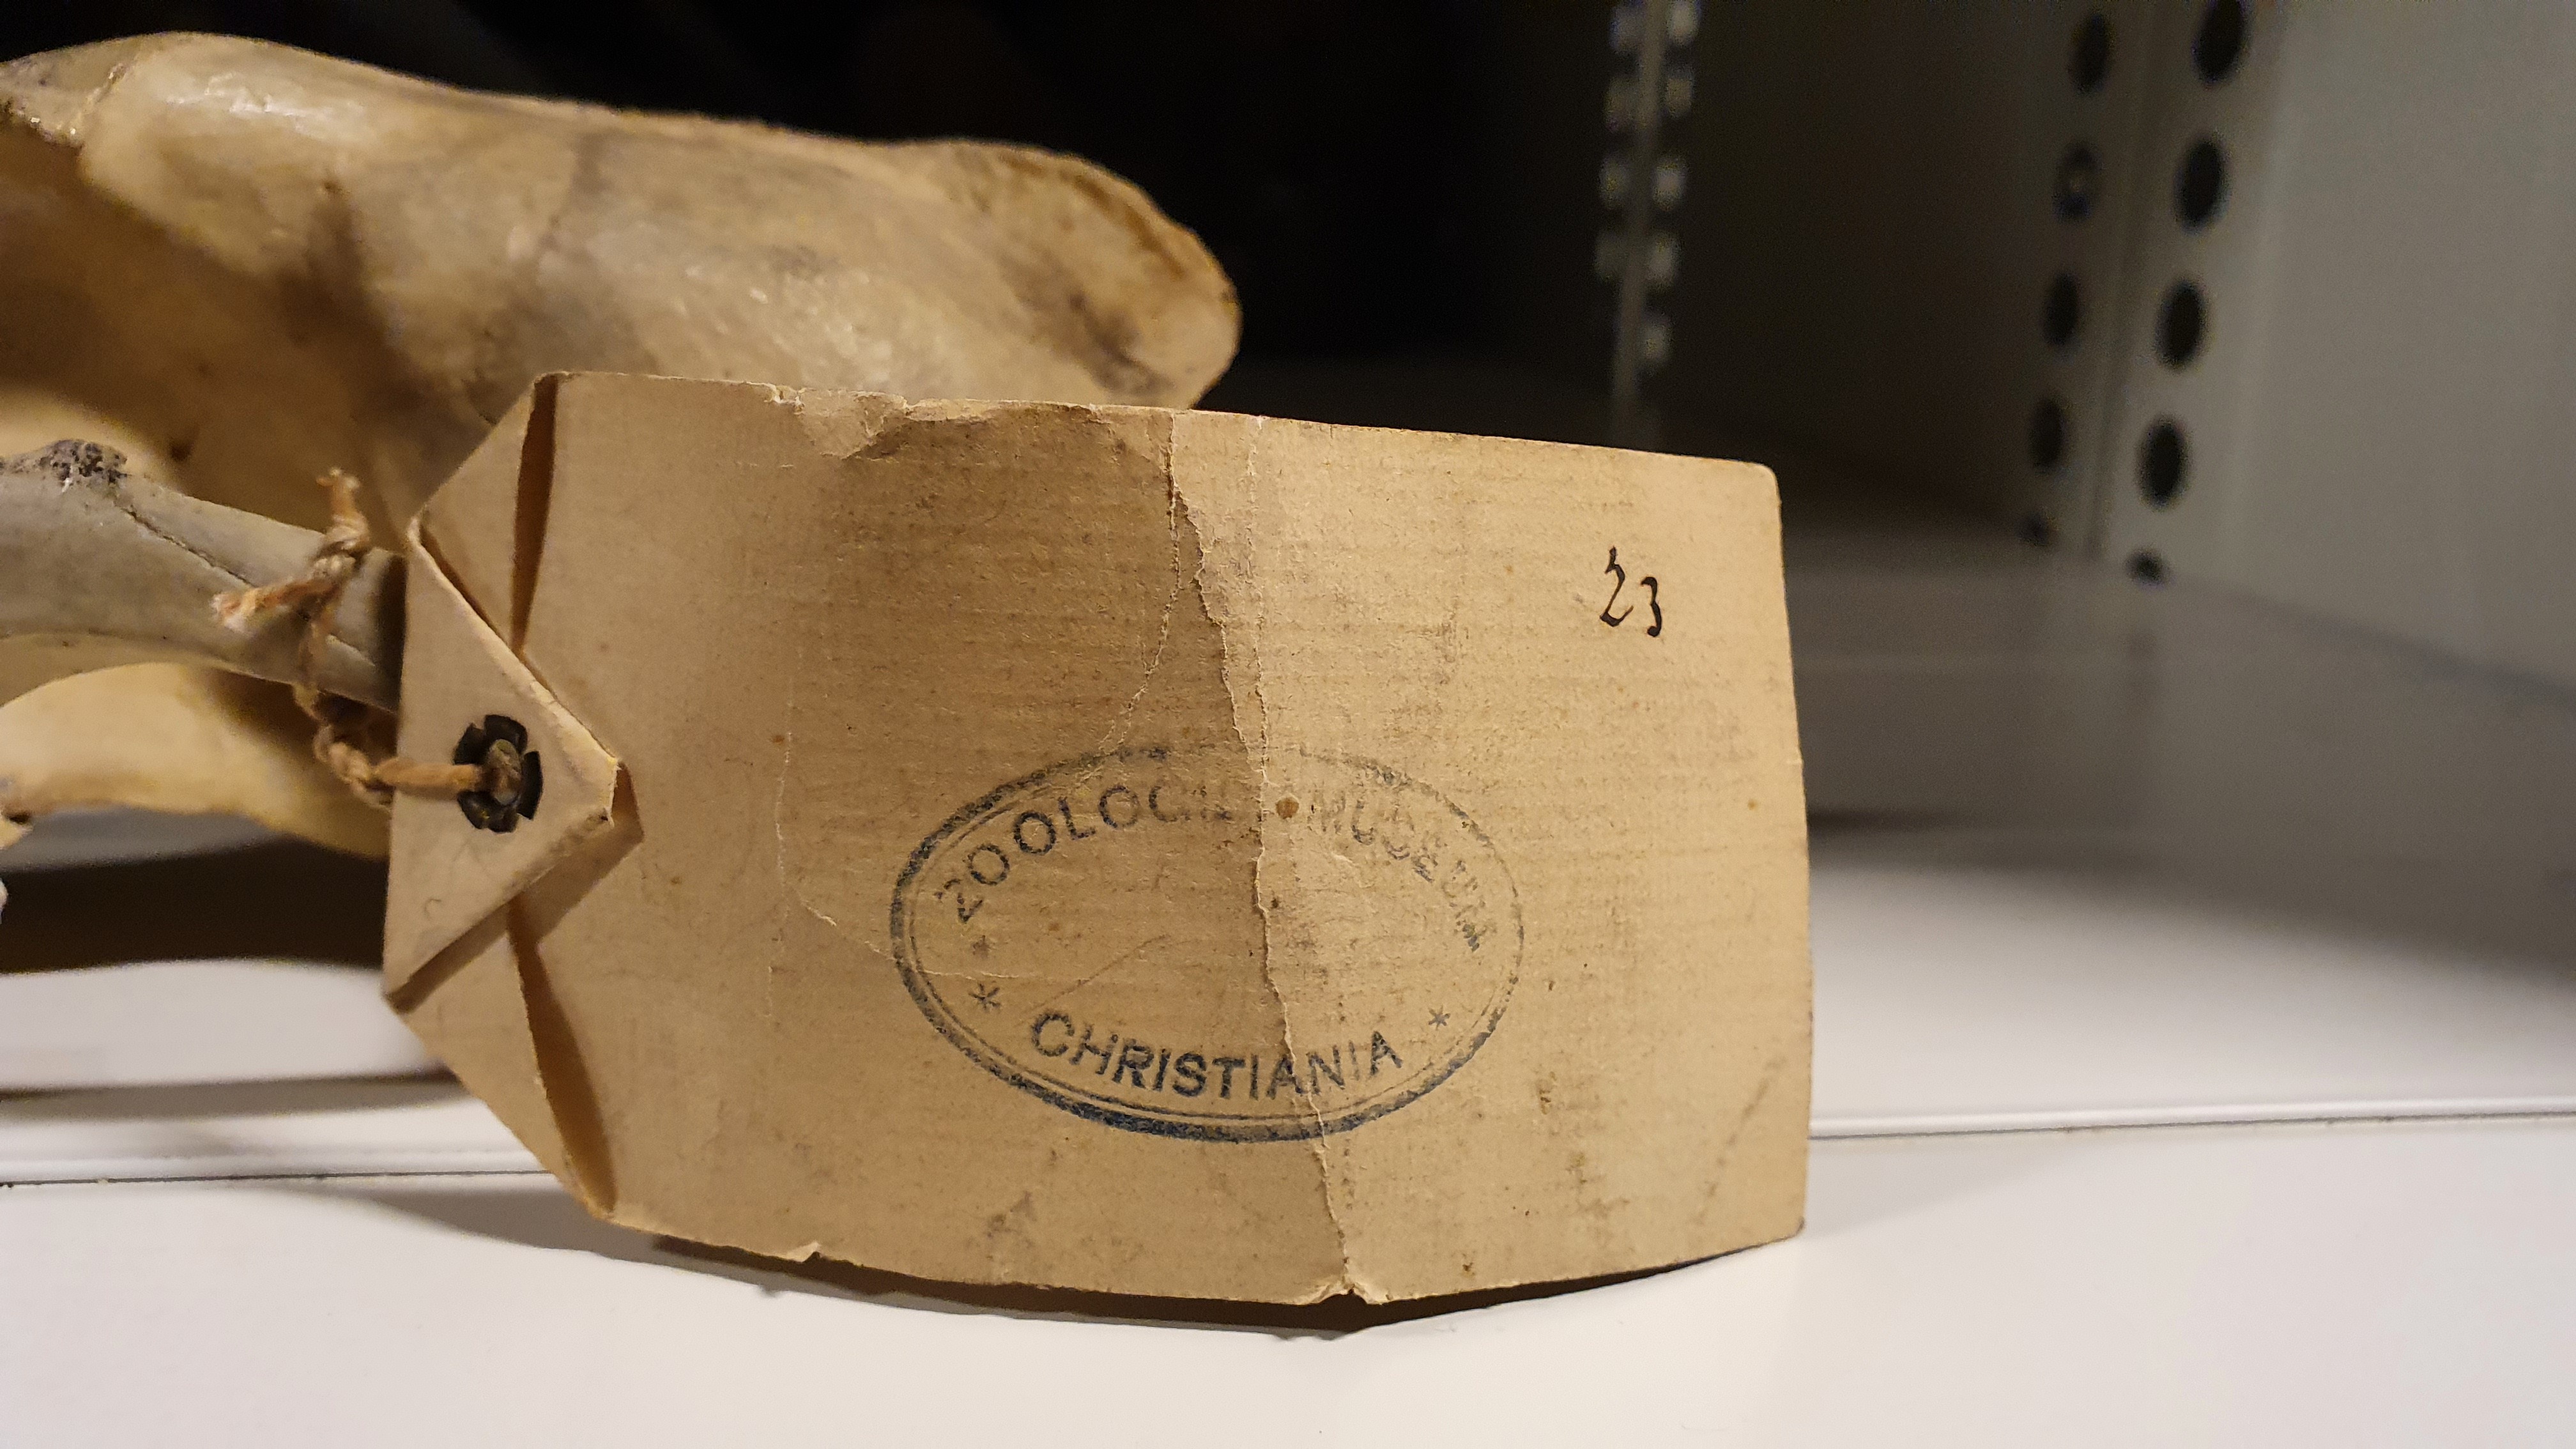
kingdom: Animalia
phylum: Chordata
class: Mammalia
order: Carnivora
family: Canidae
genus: Canis
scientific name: Canis lupus
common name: Gray wolf
